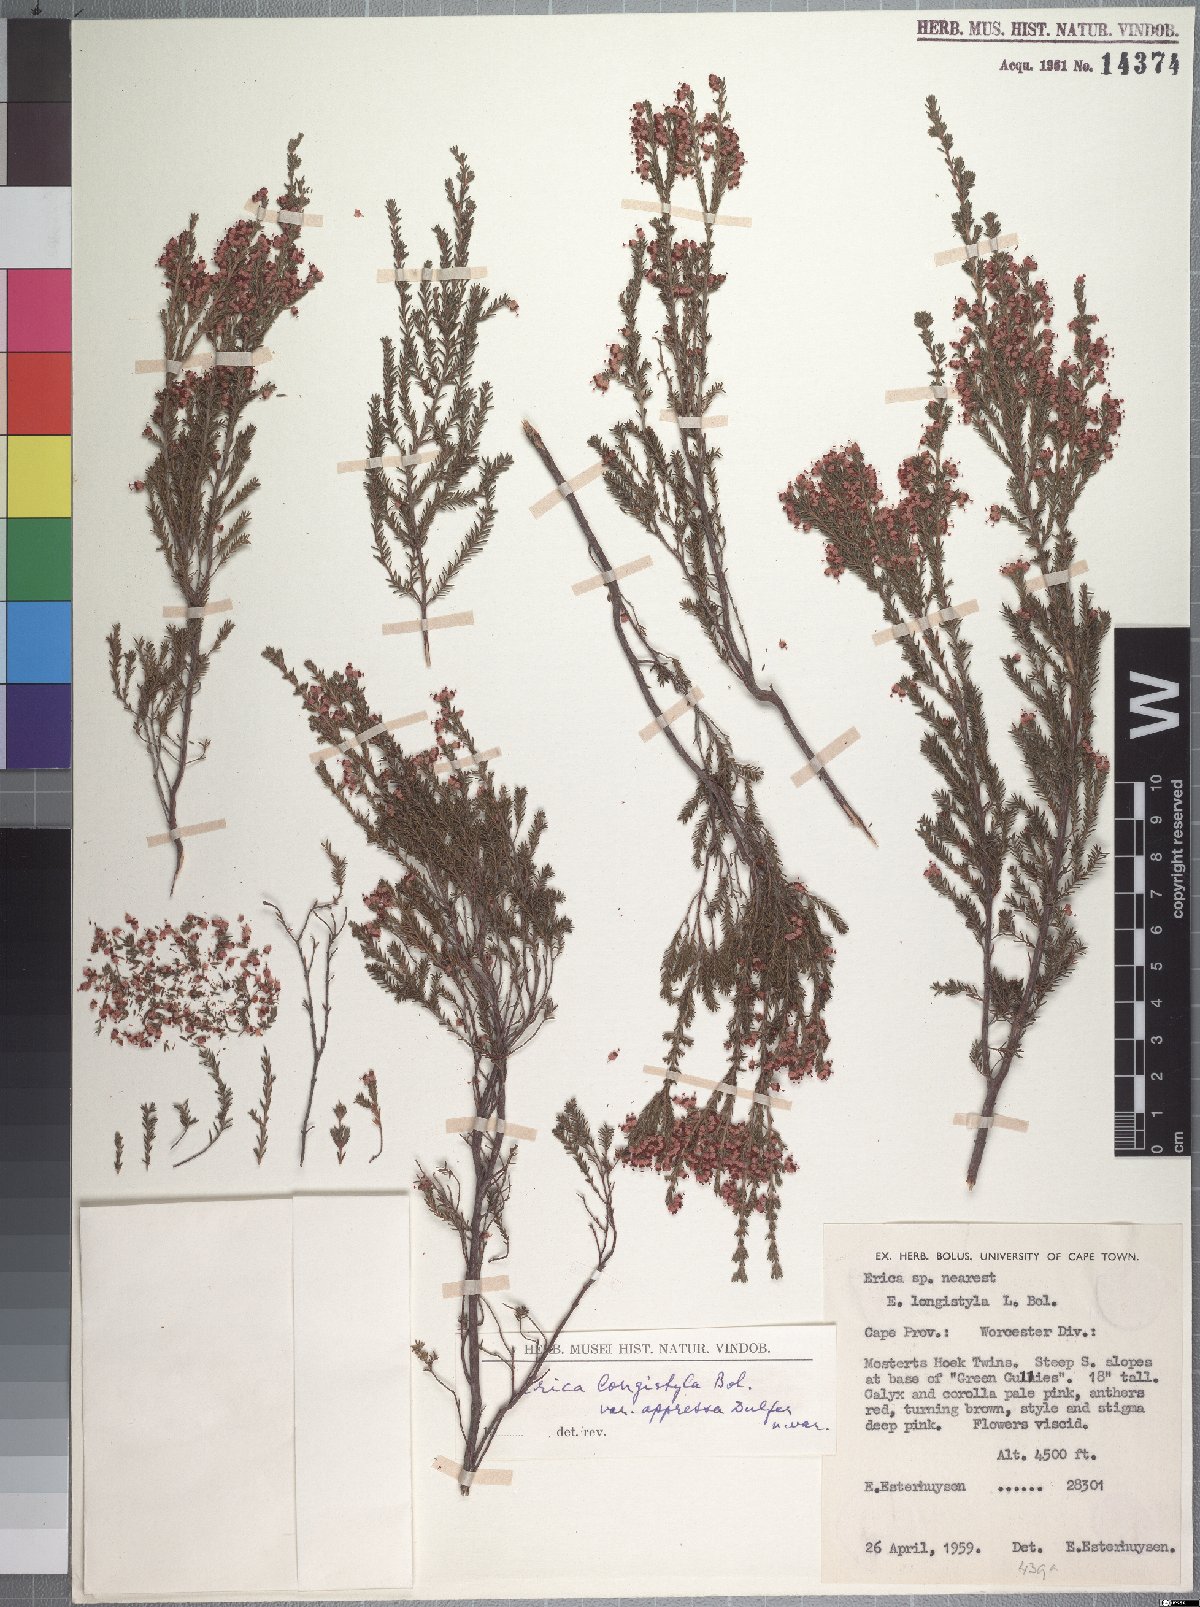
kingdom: Plantae
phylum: Tracheophyta
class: Magnoliopsida
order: Ericales
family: Ericaceae
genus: Erica
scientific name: Erica longistyla
